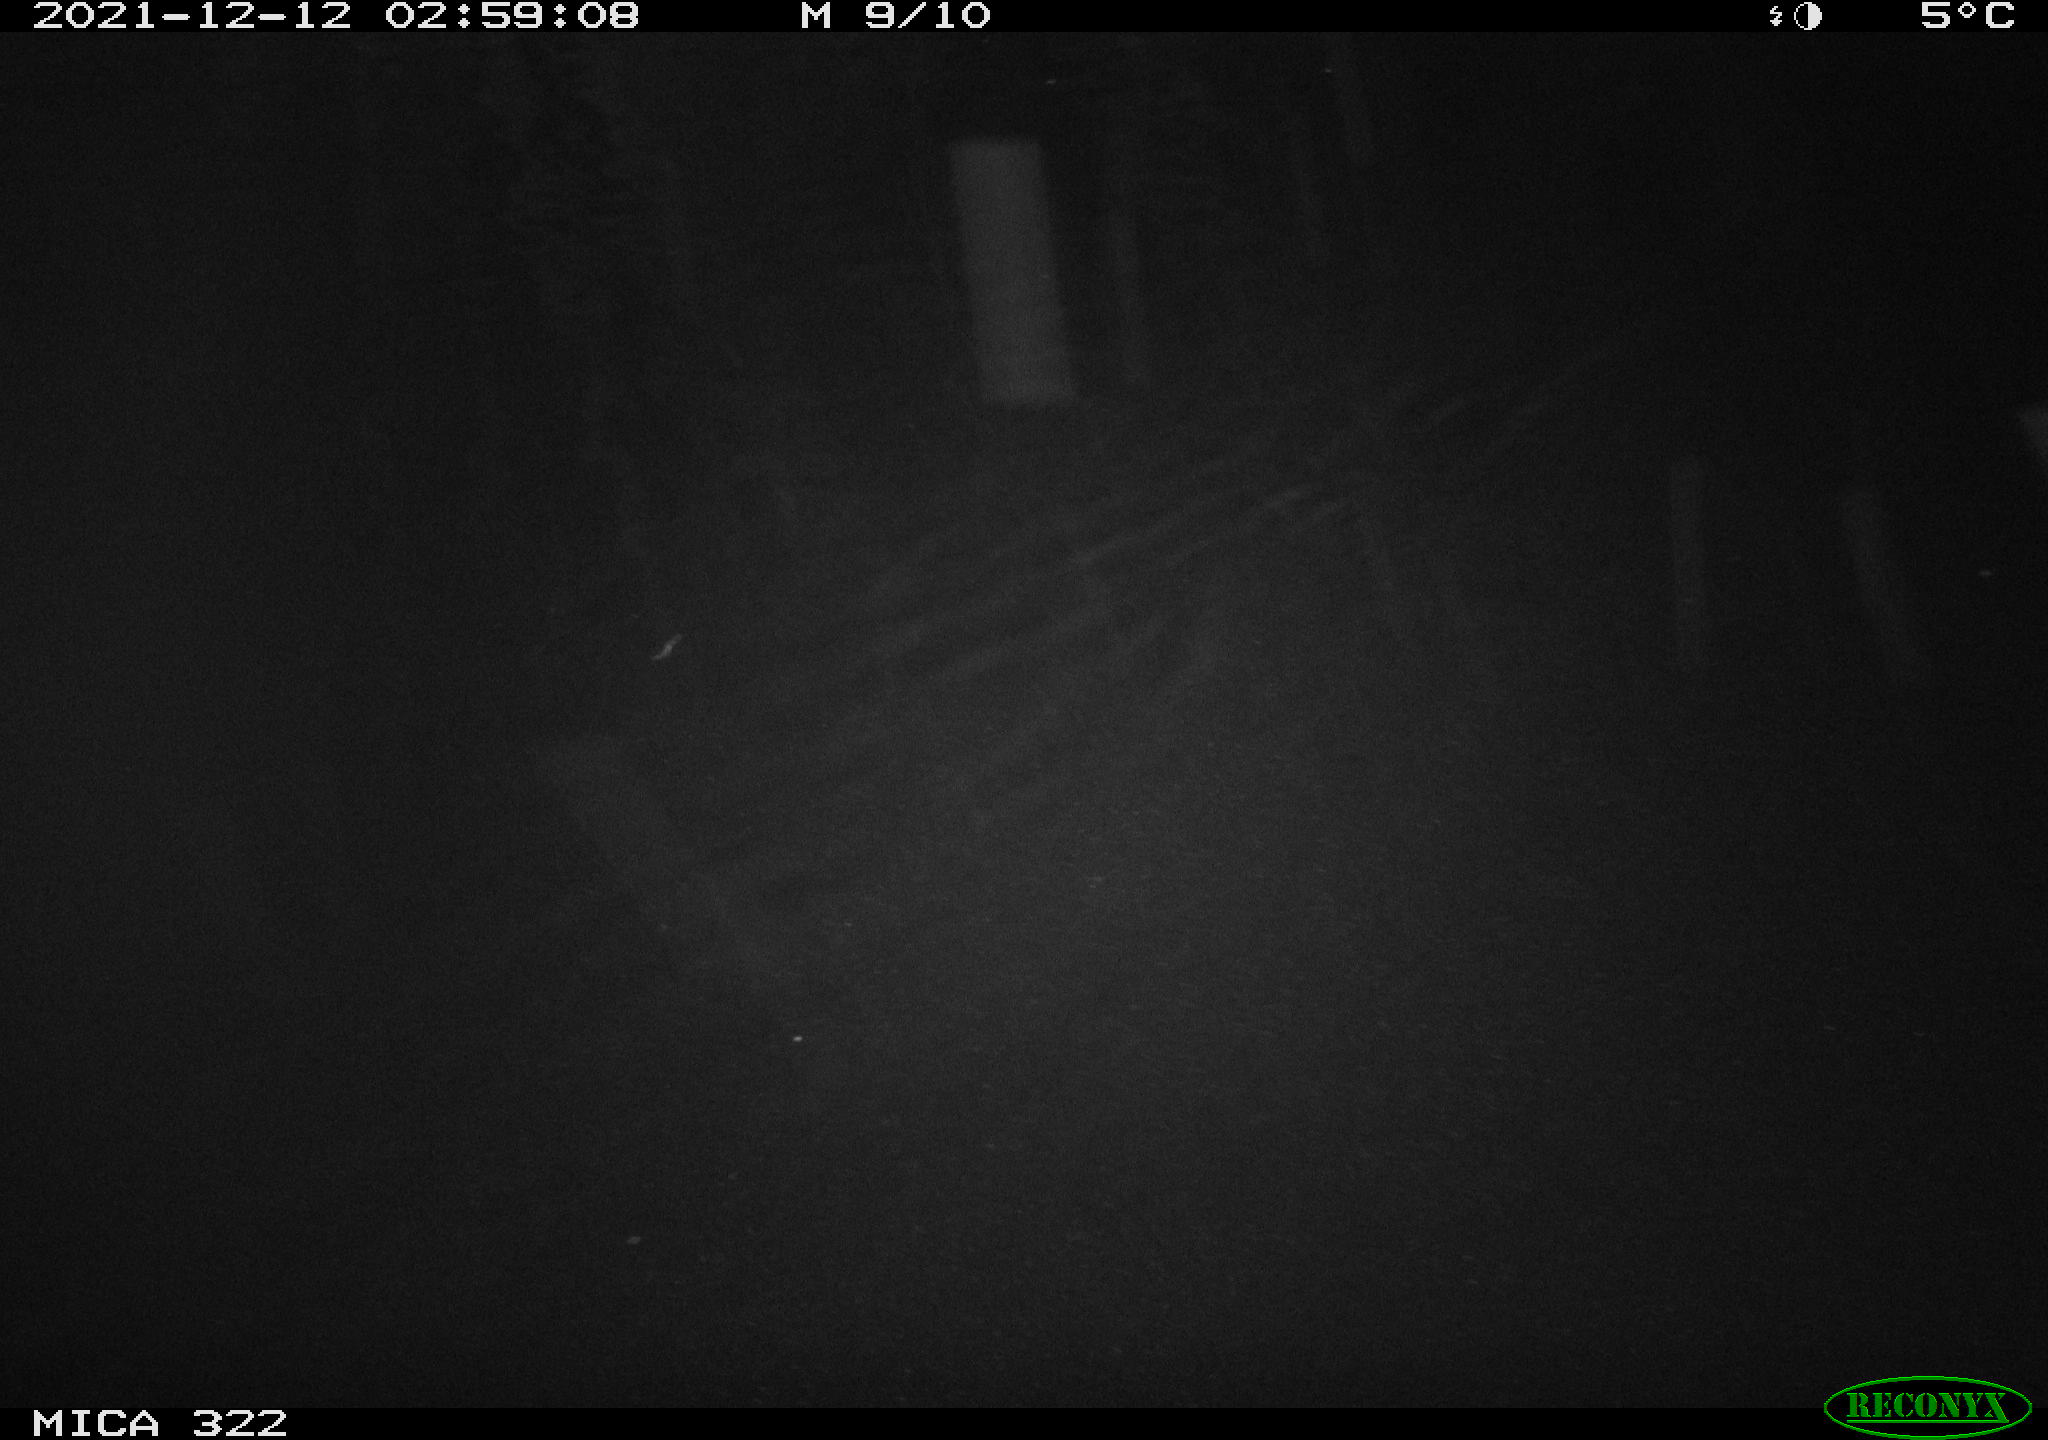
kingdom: Animalia
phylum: Chordata
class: Mammalia
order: Rodentia
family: Muridae
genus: Rattus
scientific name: Rattus norvegicus
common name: Brown rat
